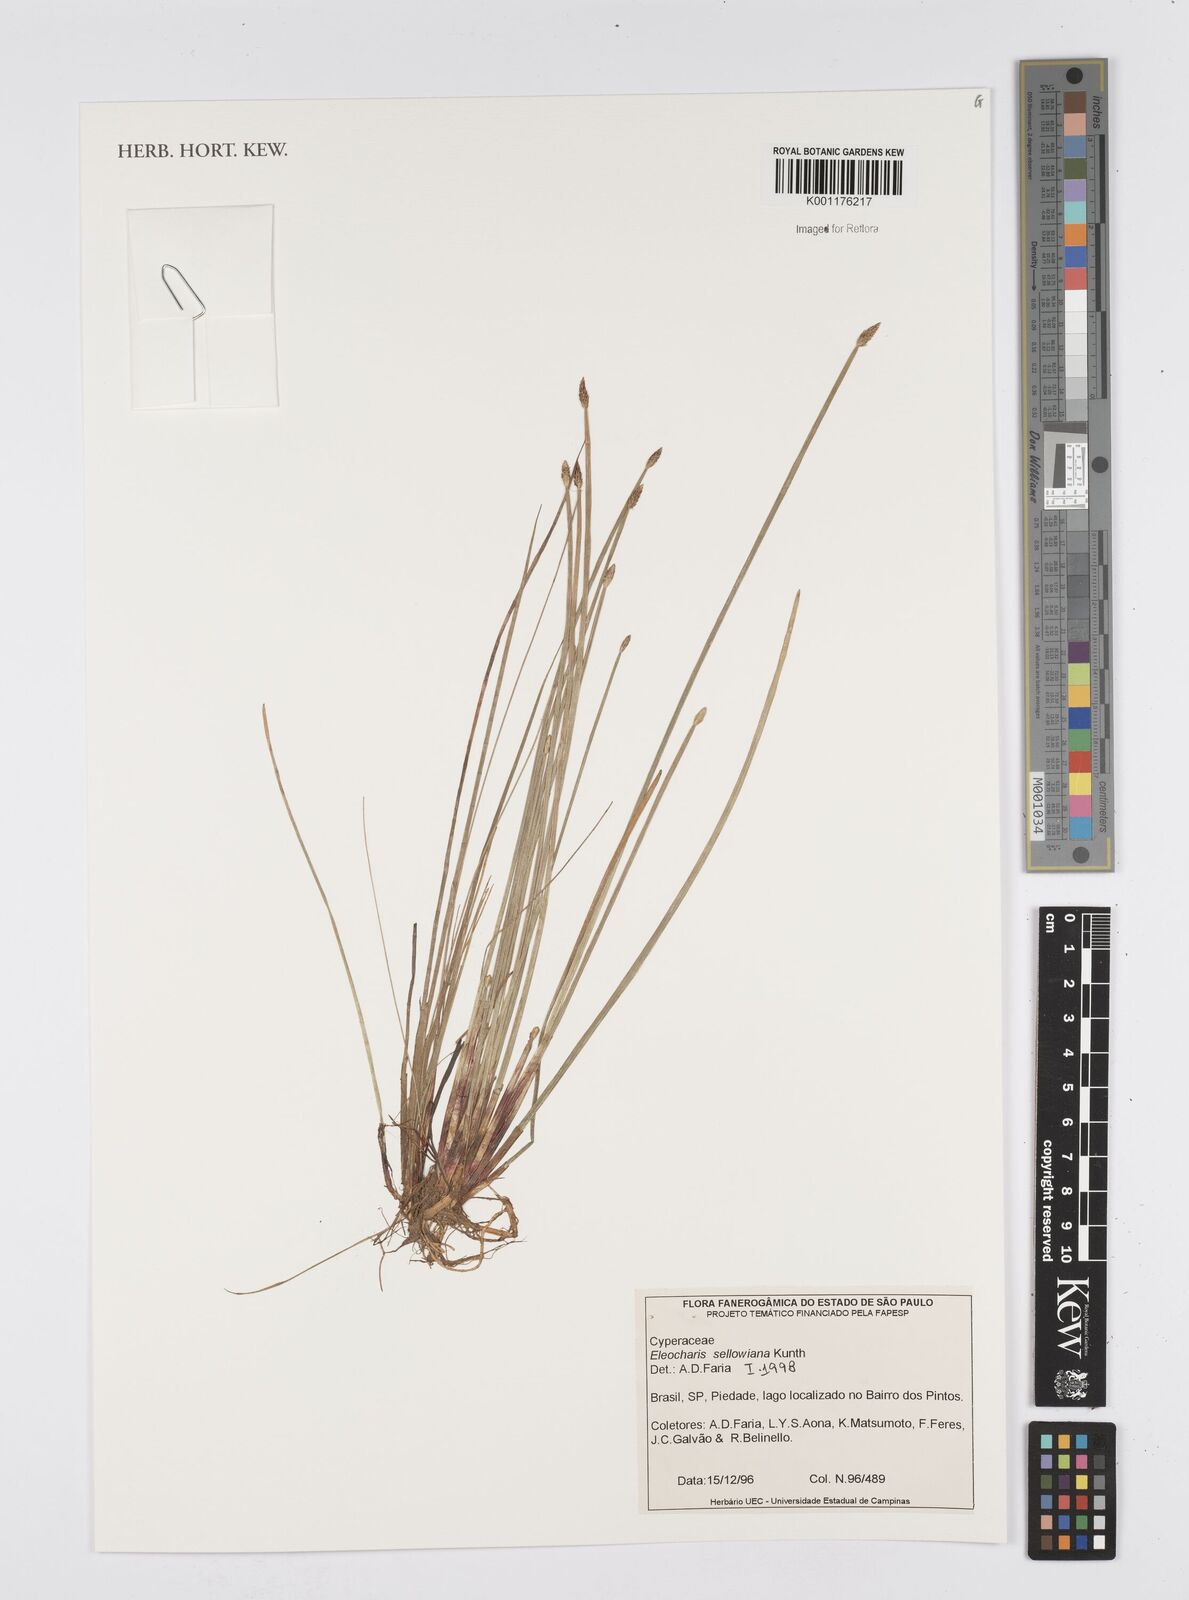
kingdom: Plantae
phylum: Tracheophyta
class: Liliopsida
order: Poales
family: Cyperaceae
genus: Eleocharis
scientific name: Eleocharis sellowiana
